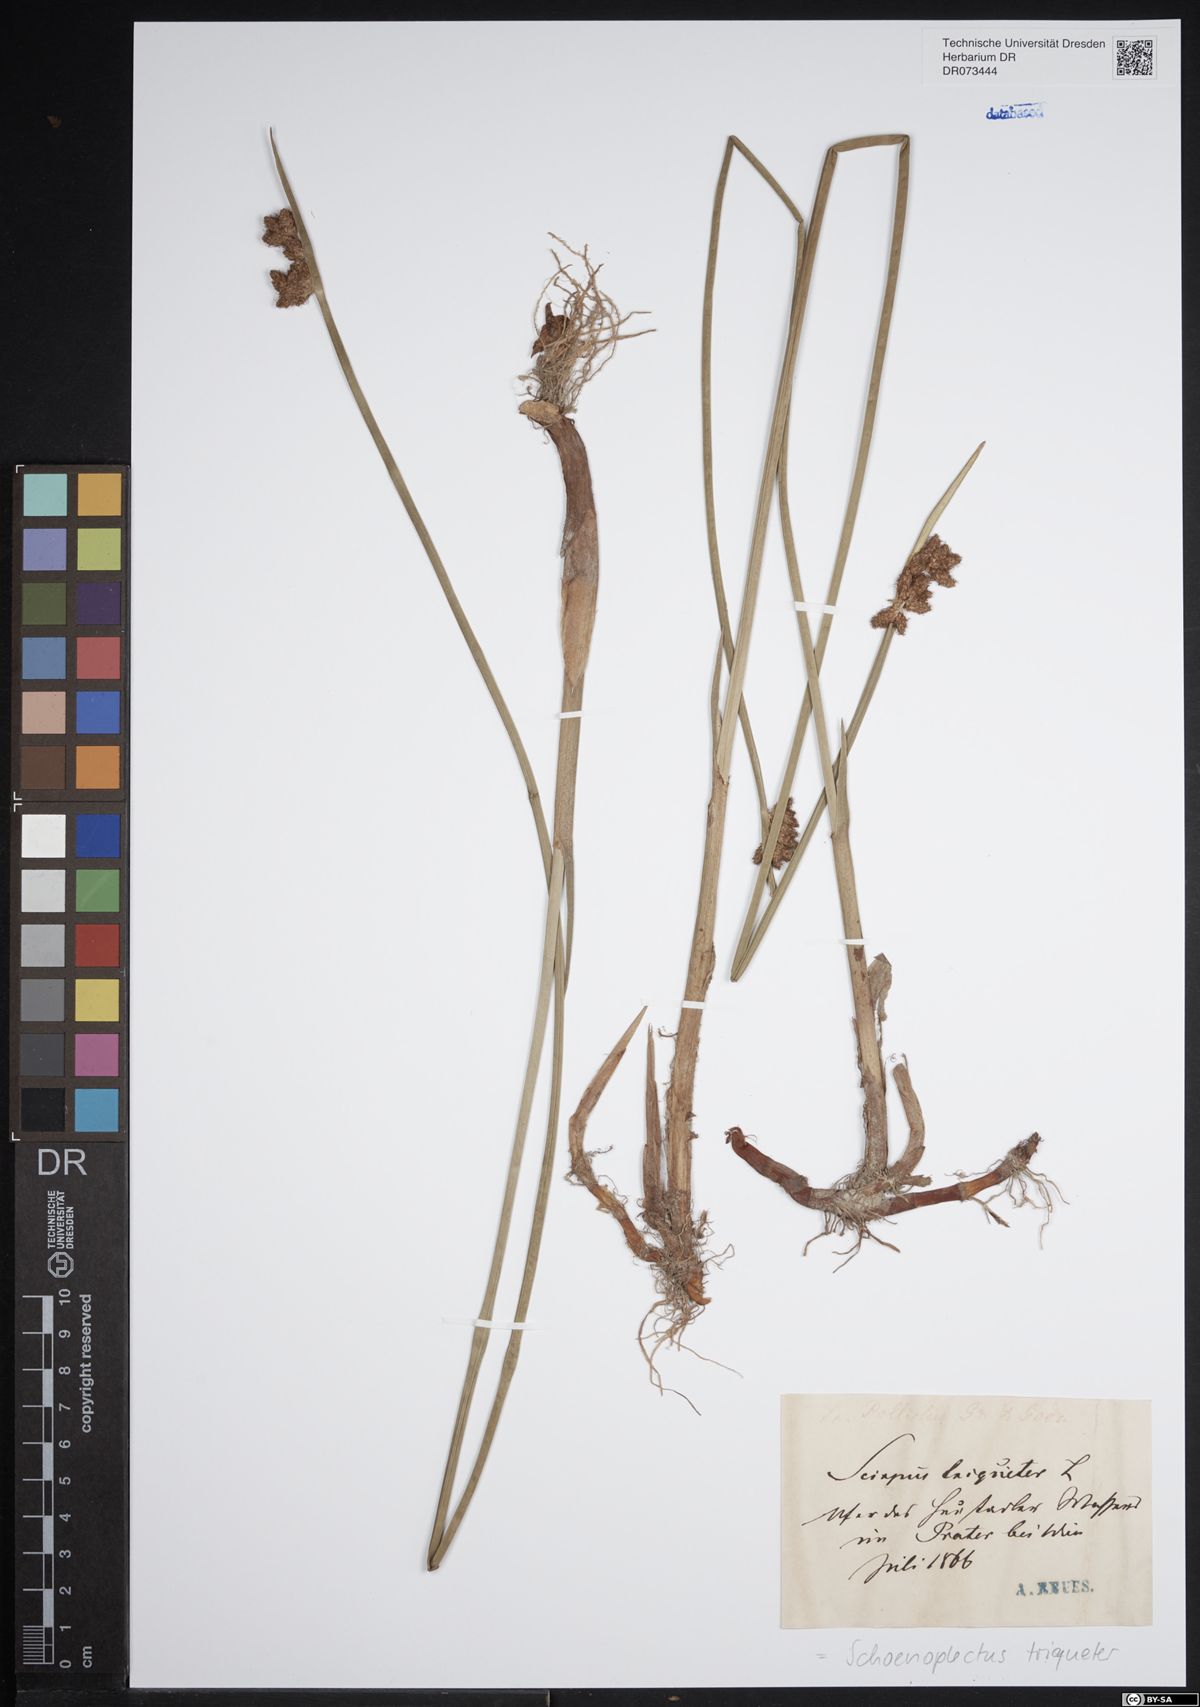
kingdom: Plantae
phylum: Tracheophyta
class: Liliopsida
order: Poales
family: Cyperaceae
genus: Schoenoplectus
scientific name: Schoenoplectus triqueter
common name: Triangular club-rush
